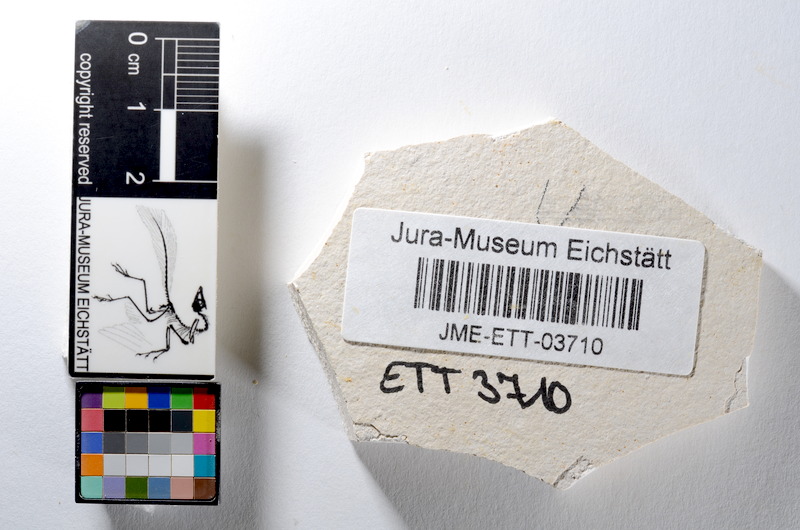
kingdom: Animalia
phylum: Chordata
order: Salmoniformes
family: Orthogonikleithridae
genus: Orthogonikleithrus
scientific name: Orthogonikleithrus hoelli
